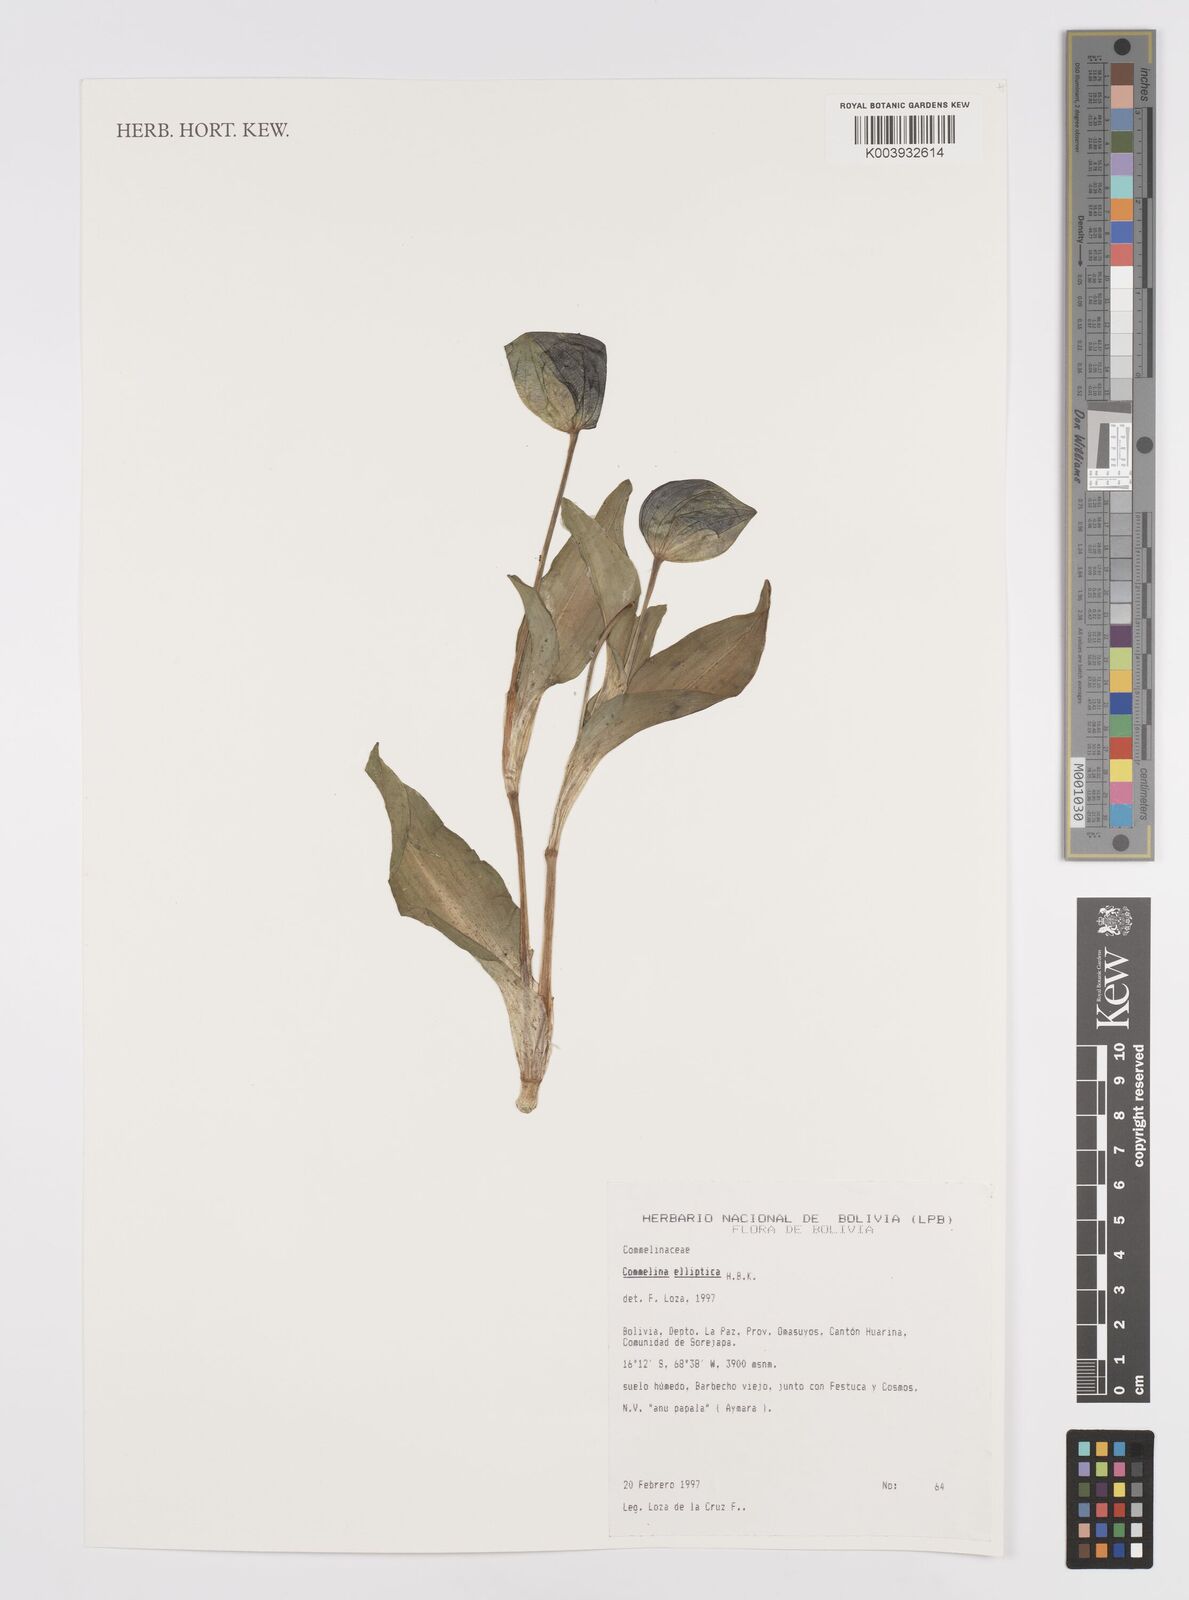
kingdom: Plantae
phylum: Tracheophyta
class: Liliopsida
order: Commelinales
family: Commelinaceae
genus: Commelina
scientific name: Commelina elliptica
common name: Peruvian spiderwort
